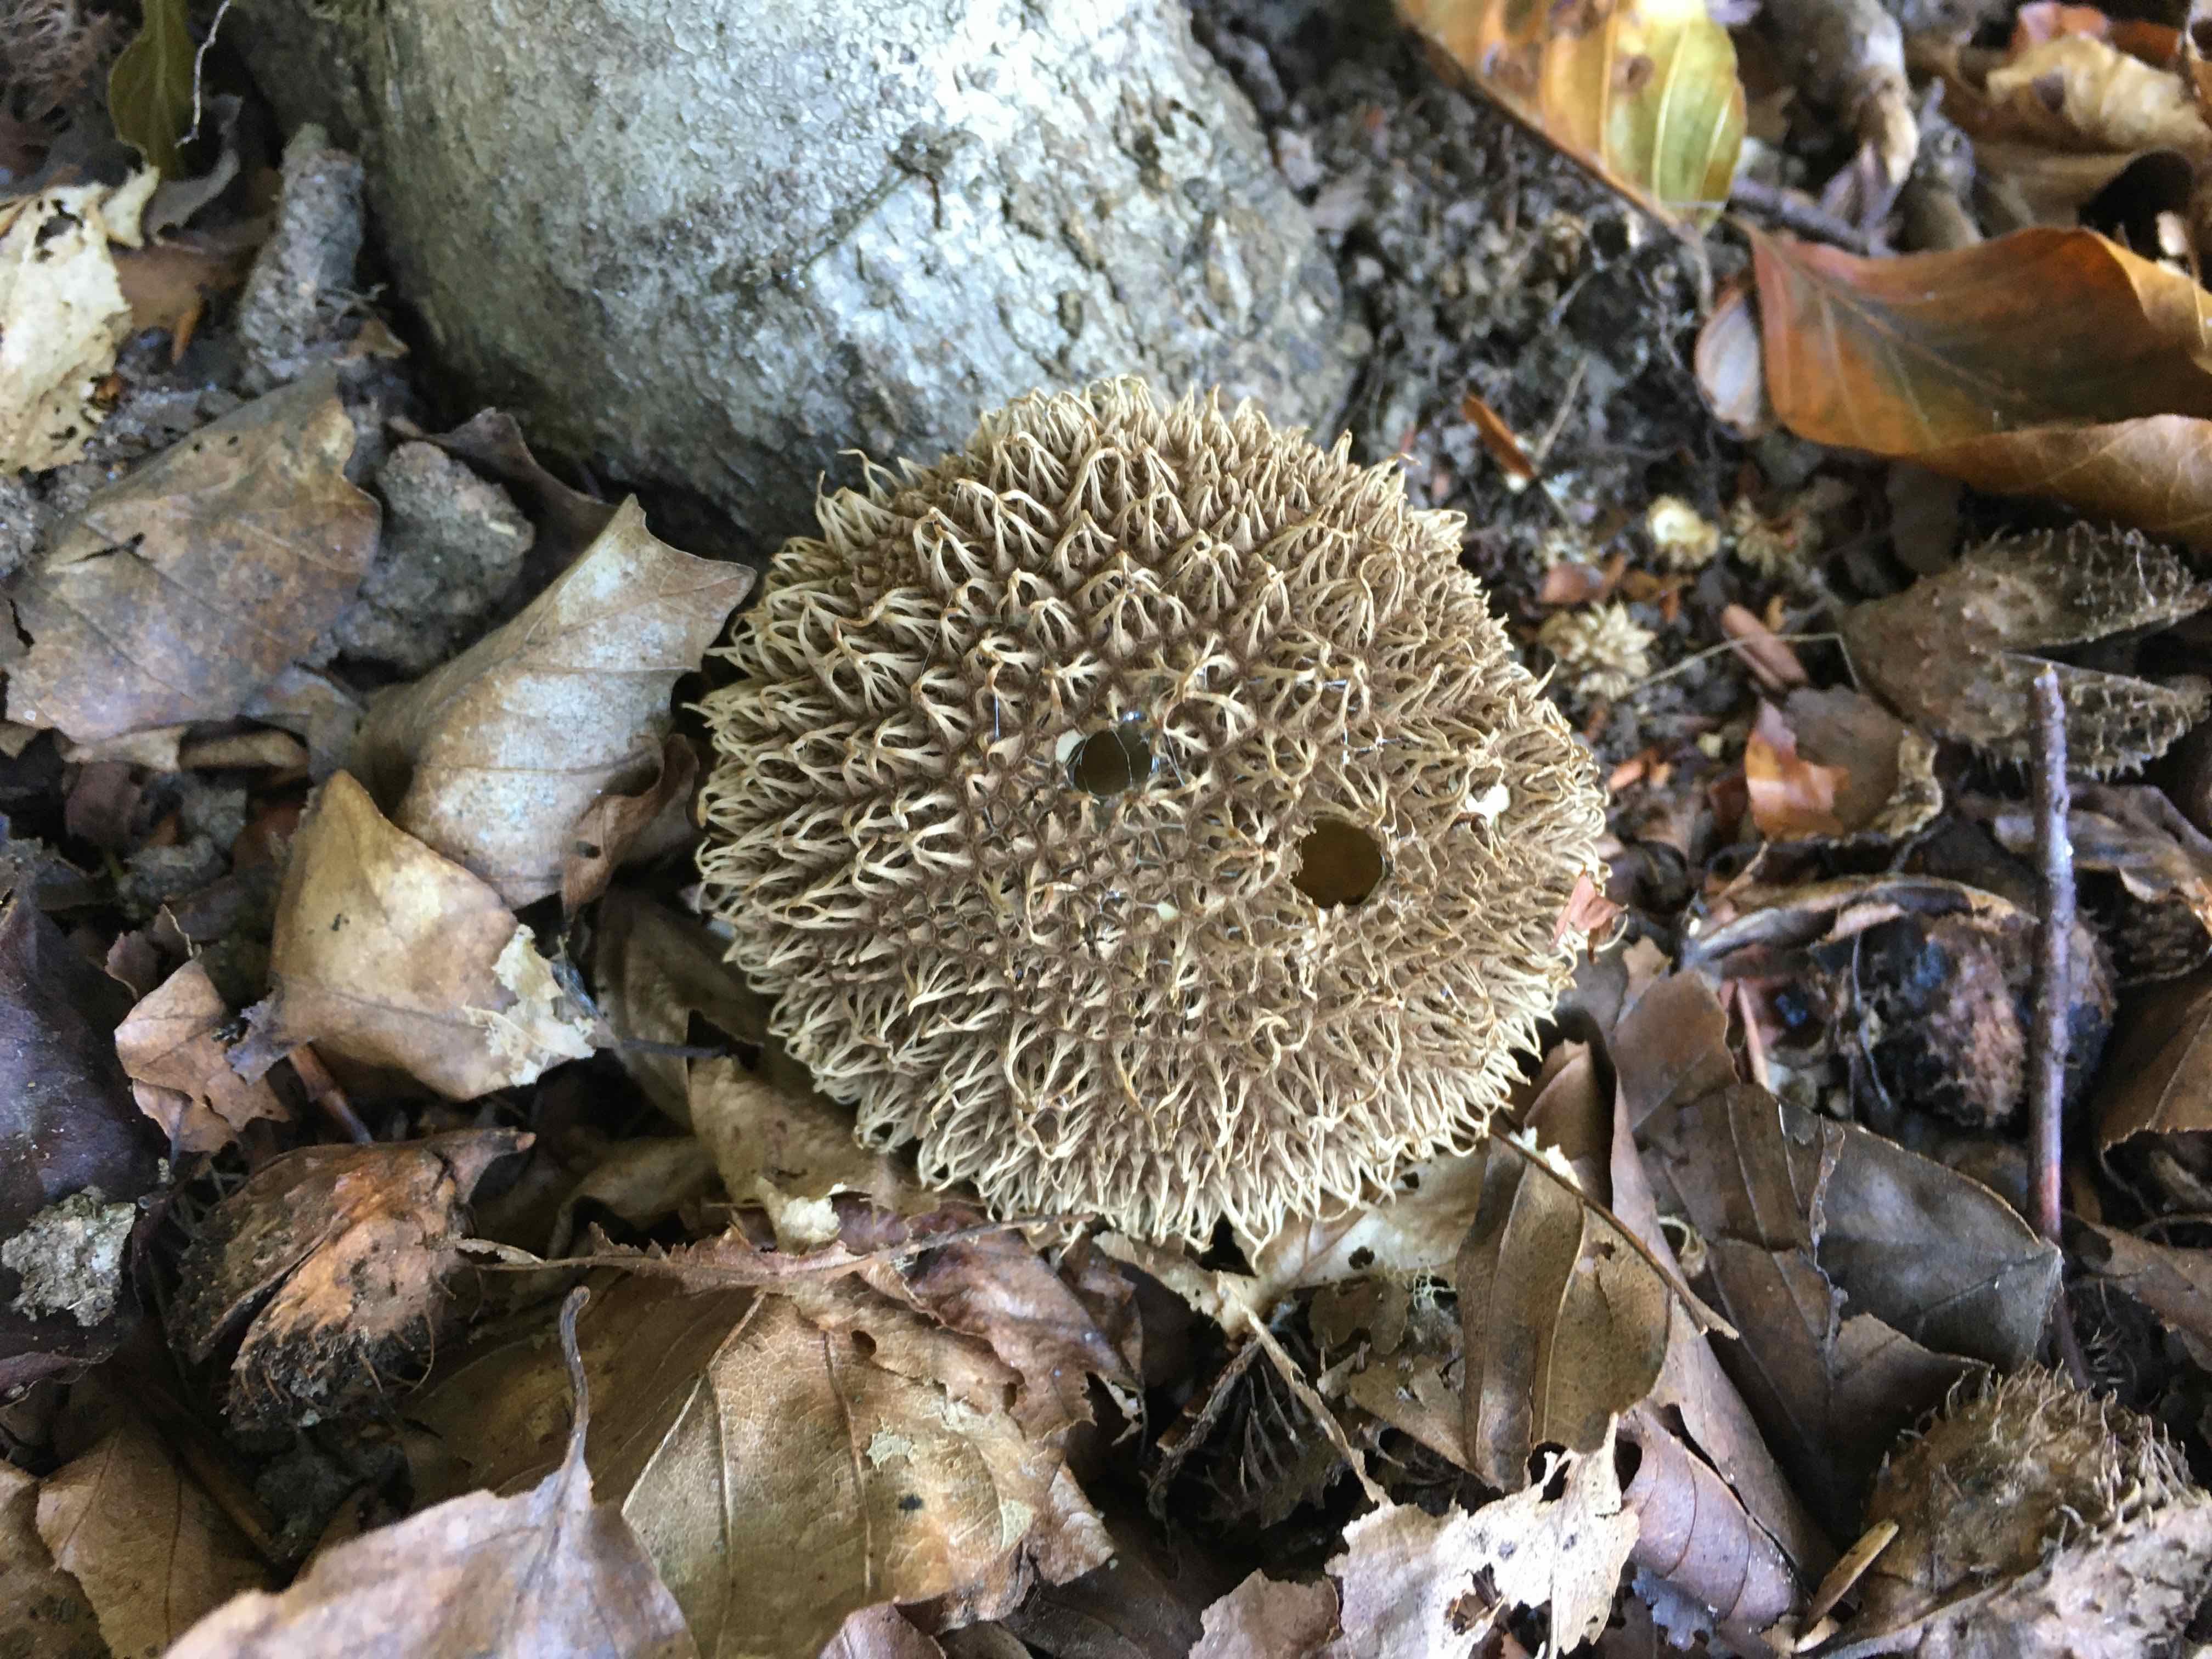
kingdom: Fungi
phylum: Basidiomycota
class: Agaricomycetes
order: Agaricales
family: Lycoperdaceae
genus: Lycoperdon
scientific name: Lycoperdon echinatum
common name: pindsvine-støvbold
